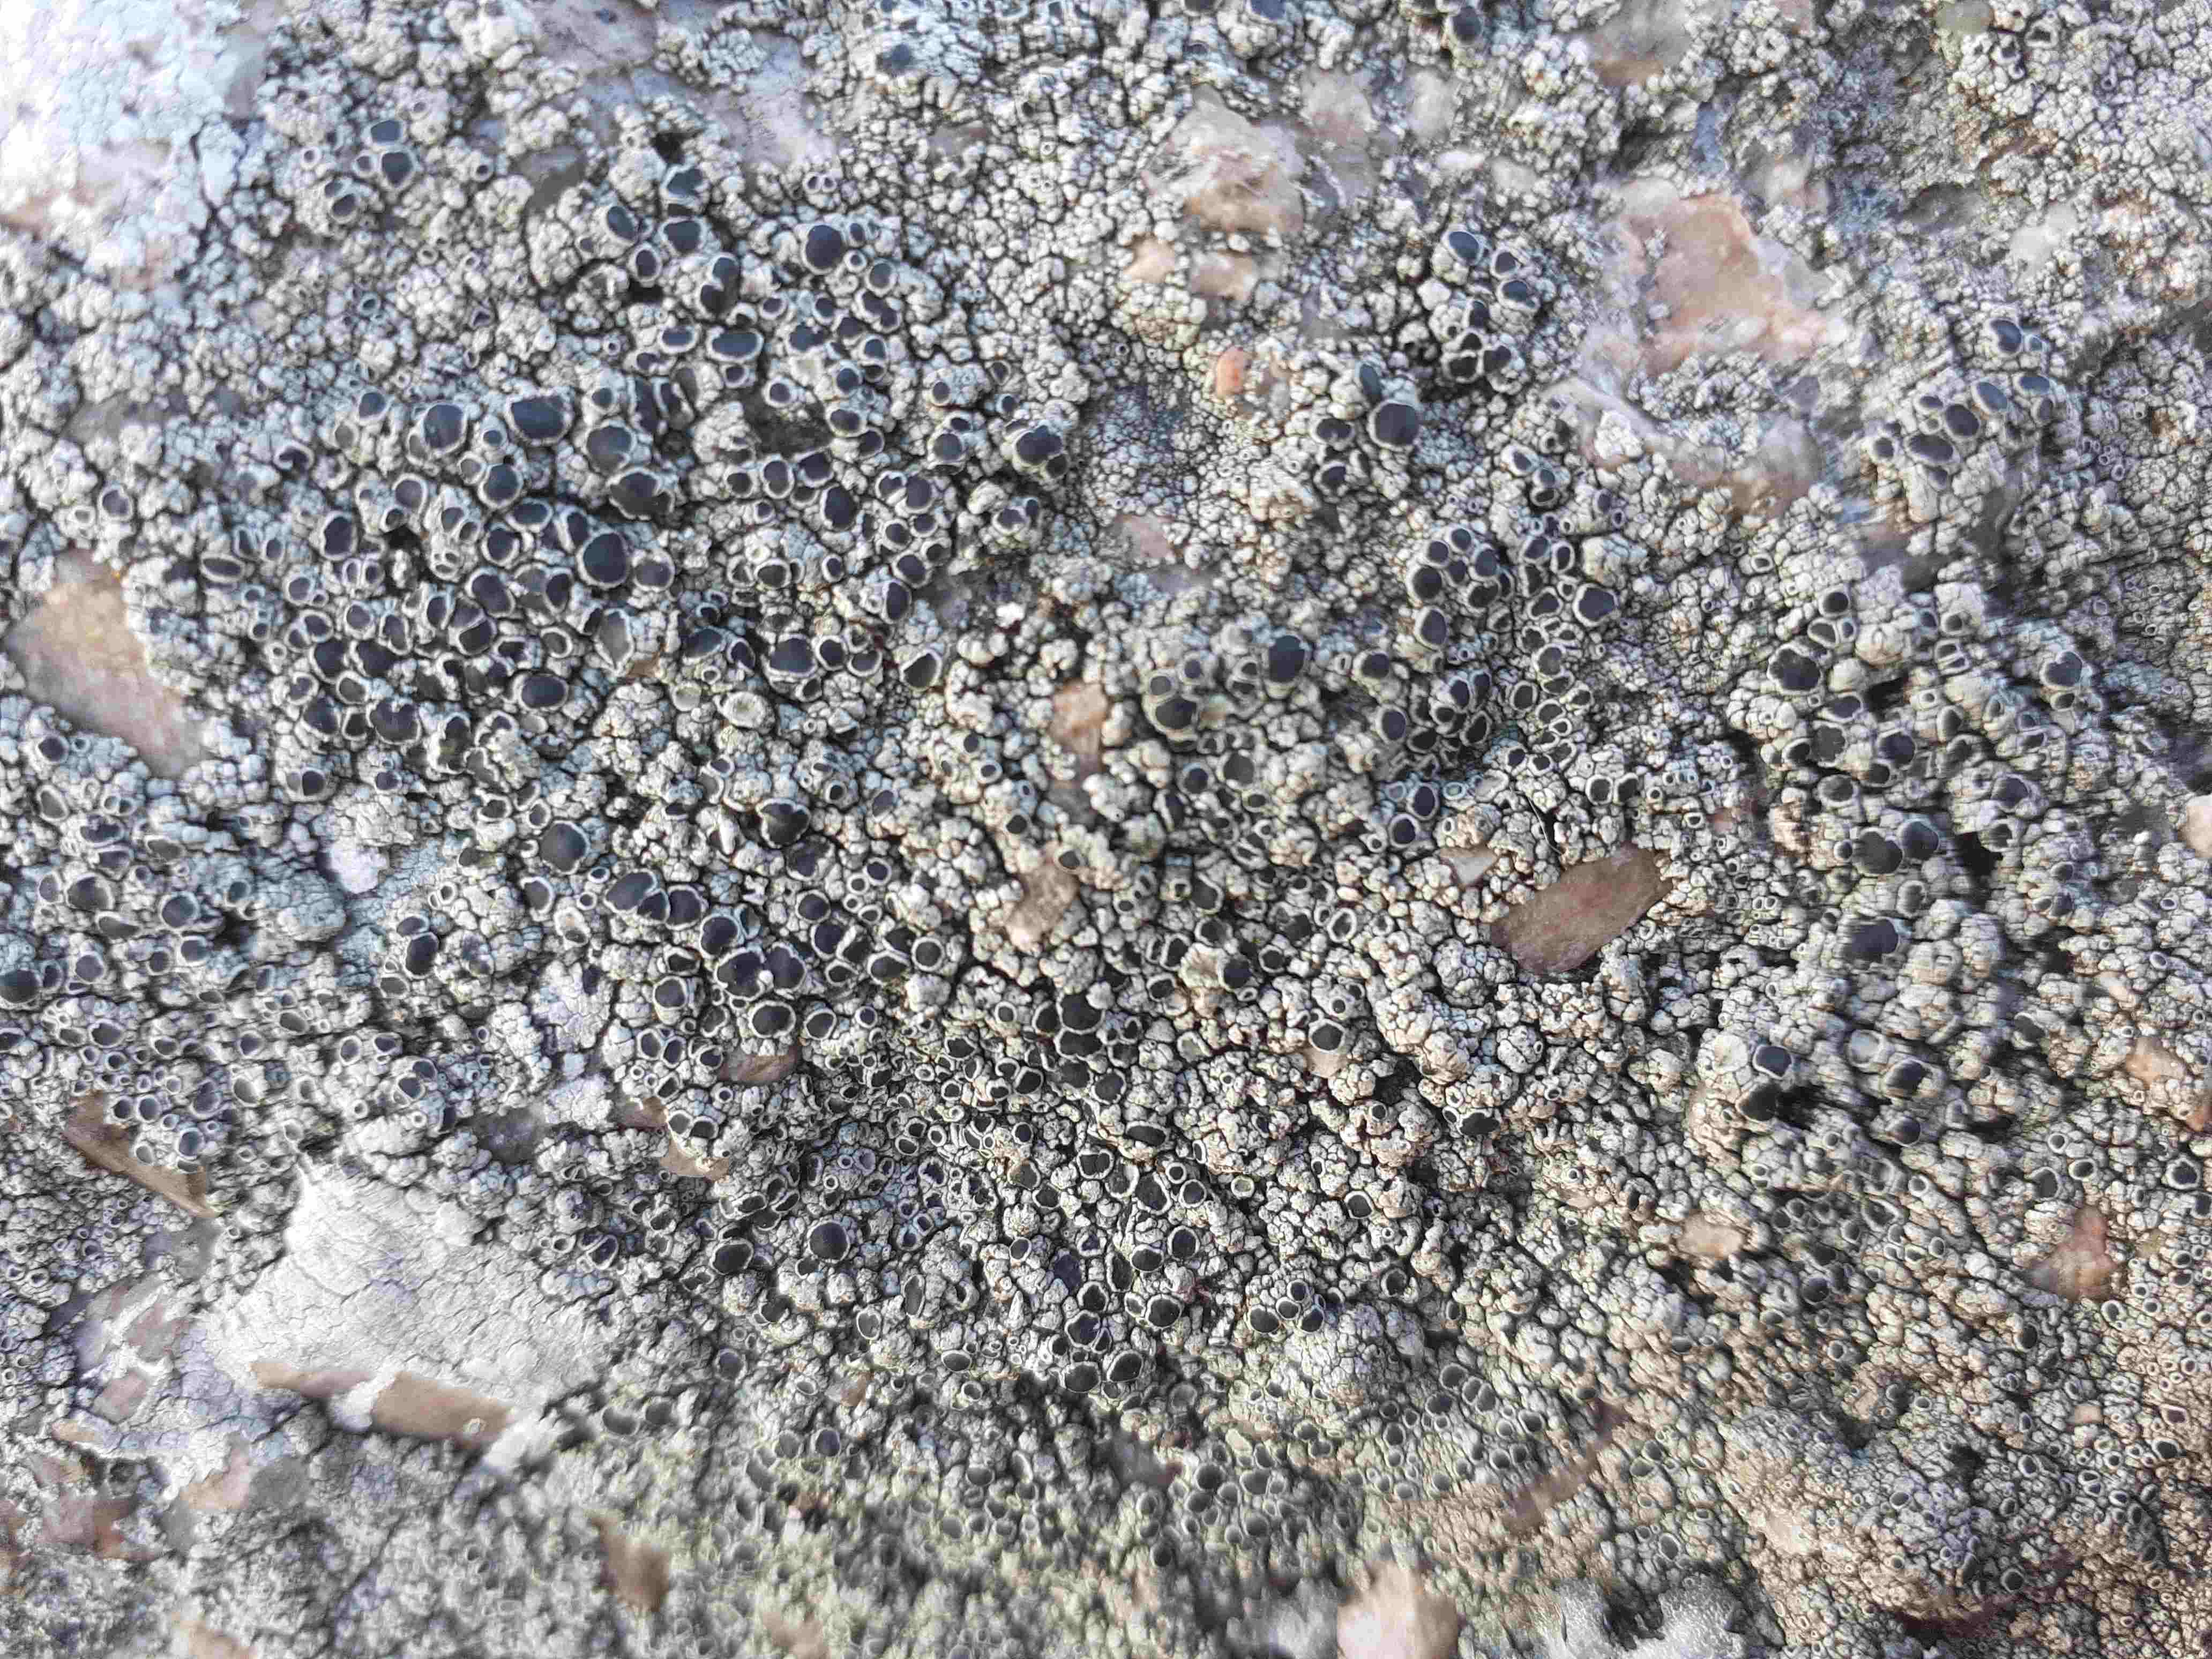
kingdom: Fungi
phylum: Ascomycota
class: Lecanoromycetes
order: Lecanorales
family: Tephromelataceae
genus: Tephromela
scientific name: Tephromela atra
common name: sortfrugtet kantskivelav
